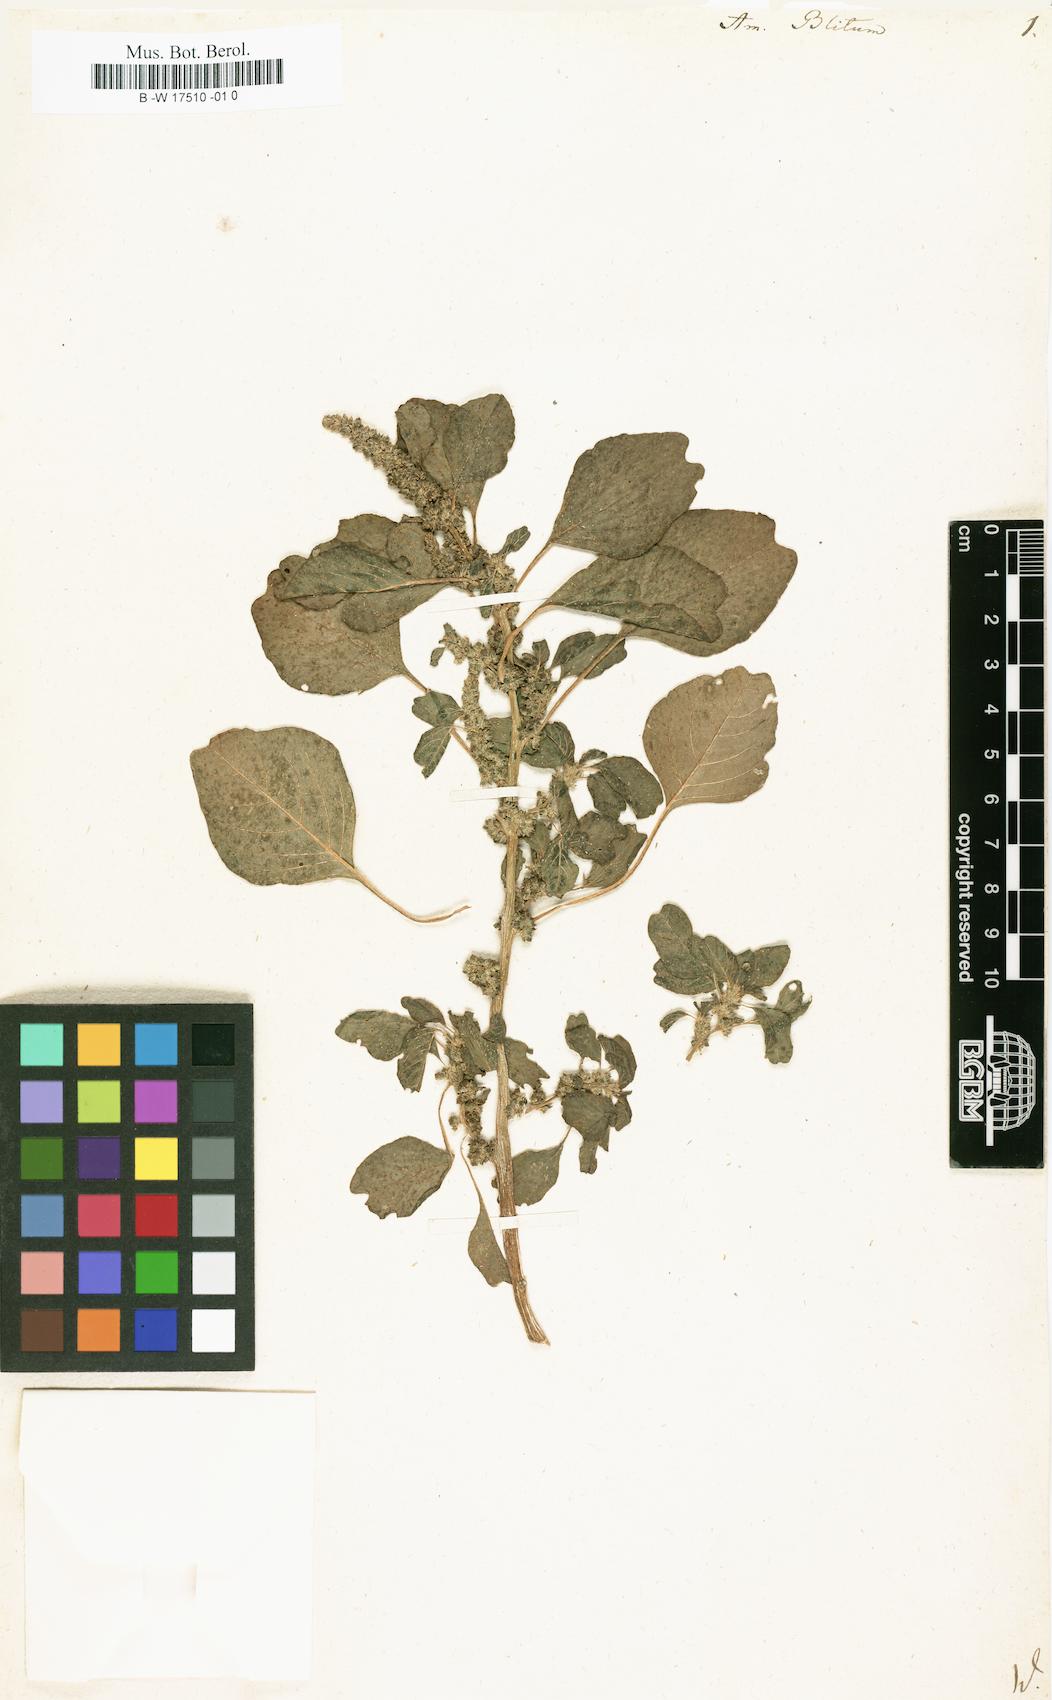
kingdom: Plantae
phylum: Tracheophyta
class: Magnoliopsida
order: Caryophyllales
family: Amaranthaceae
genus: Amaranthus
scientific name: Amaranthus blitum
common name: Purple amaranth
